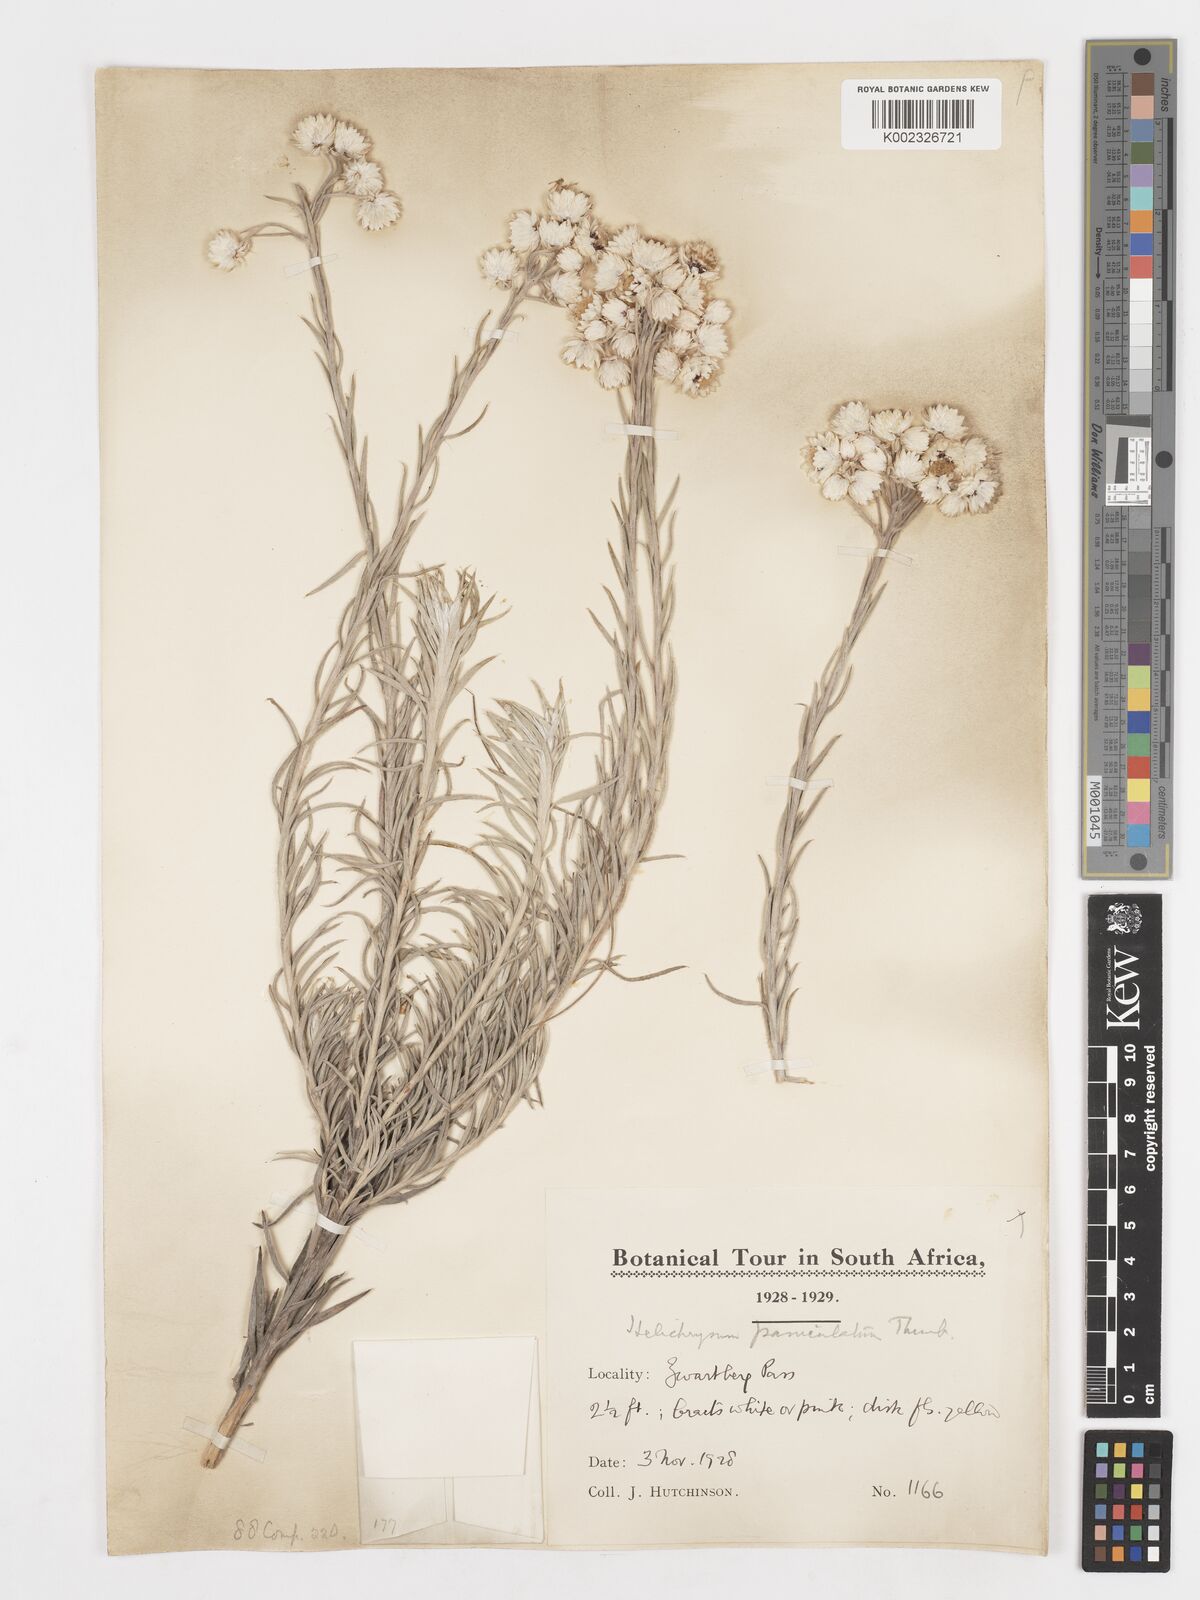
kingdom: Plantae
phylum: Tracheophyta
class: Magnoliopsida
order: Asterales
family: Asteraceae
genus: Achyranthemum
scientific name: Achyranthemum paniculatum
